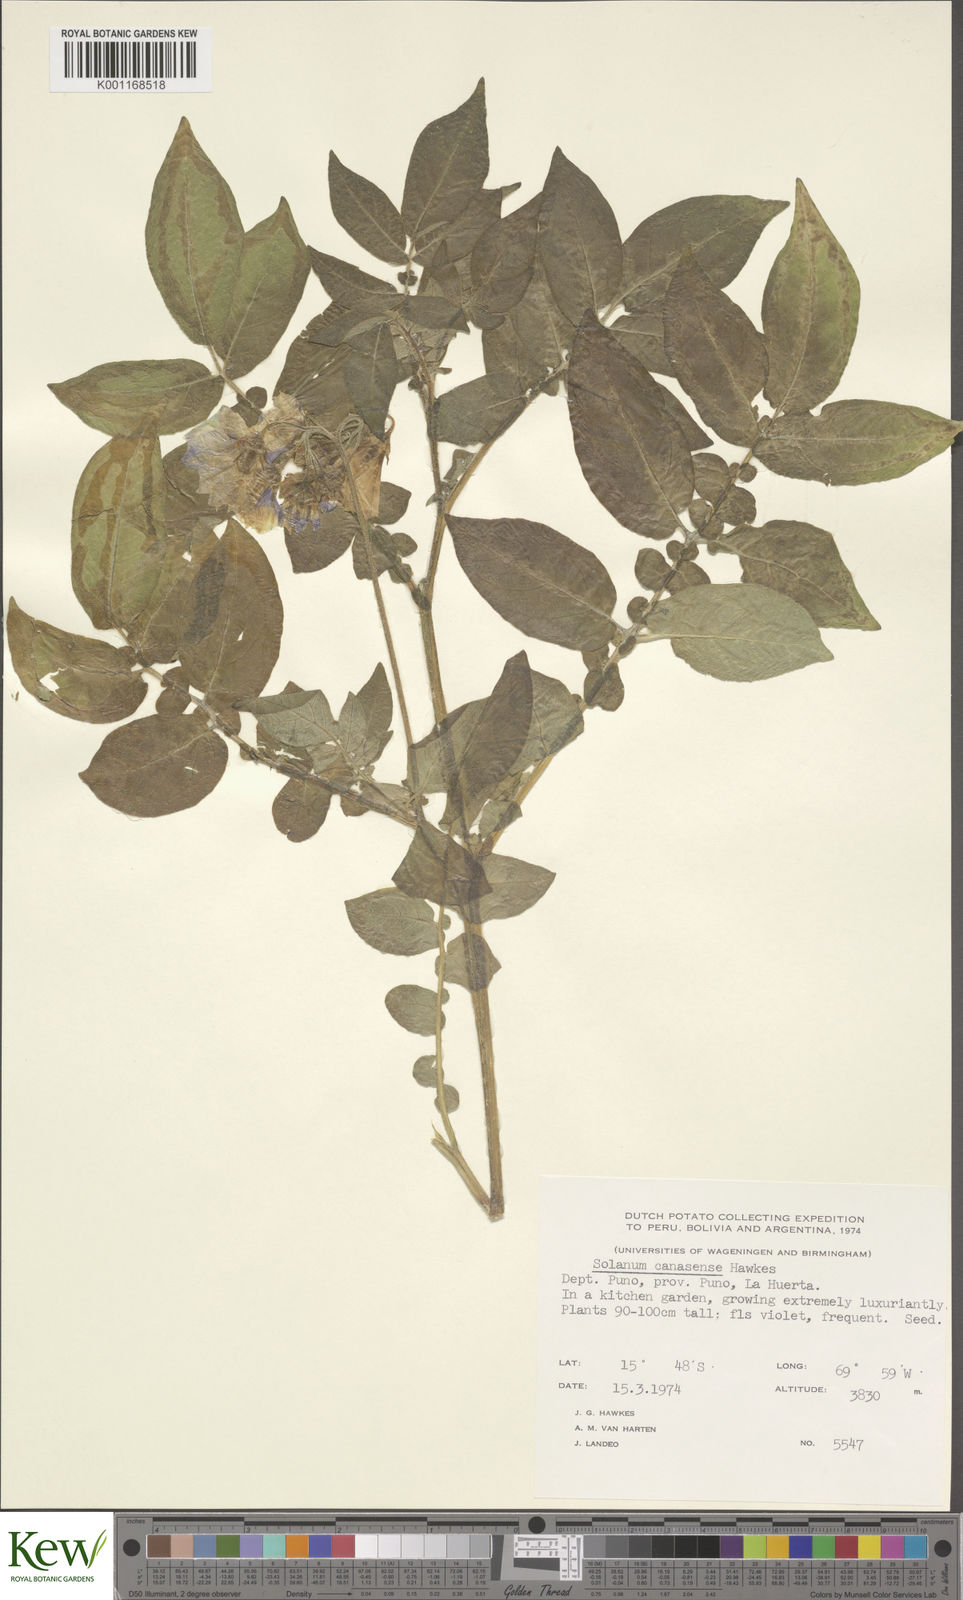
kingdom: Plantae
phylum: Tracheophyta
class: Magnoliopsida
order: Solanales
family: Solanaceae
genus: Solanum
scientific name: Solanum candolleanum
